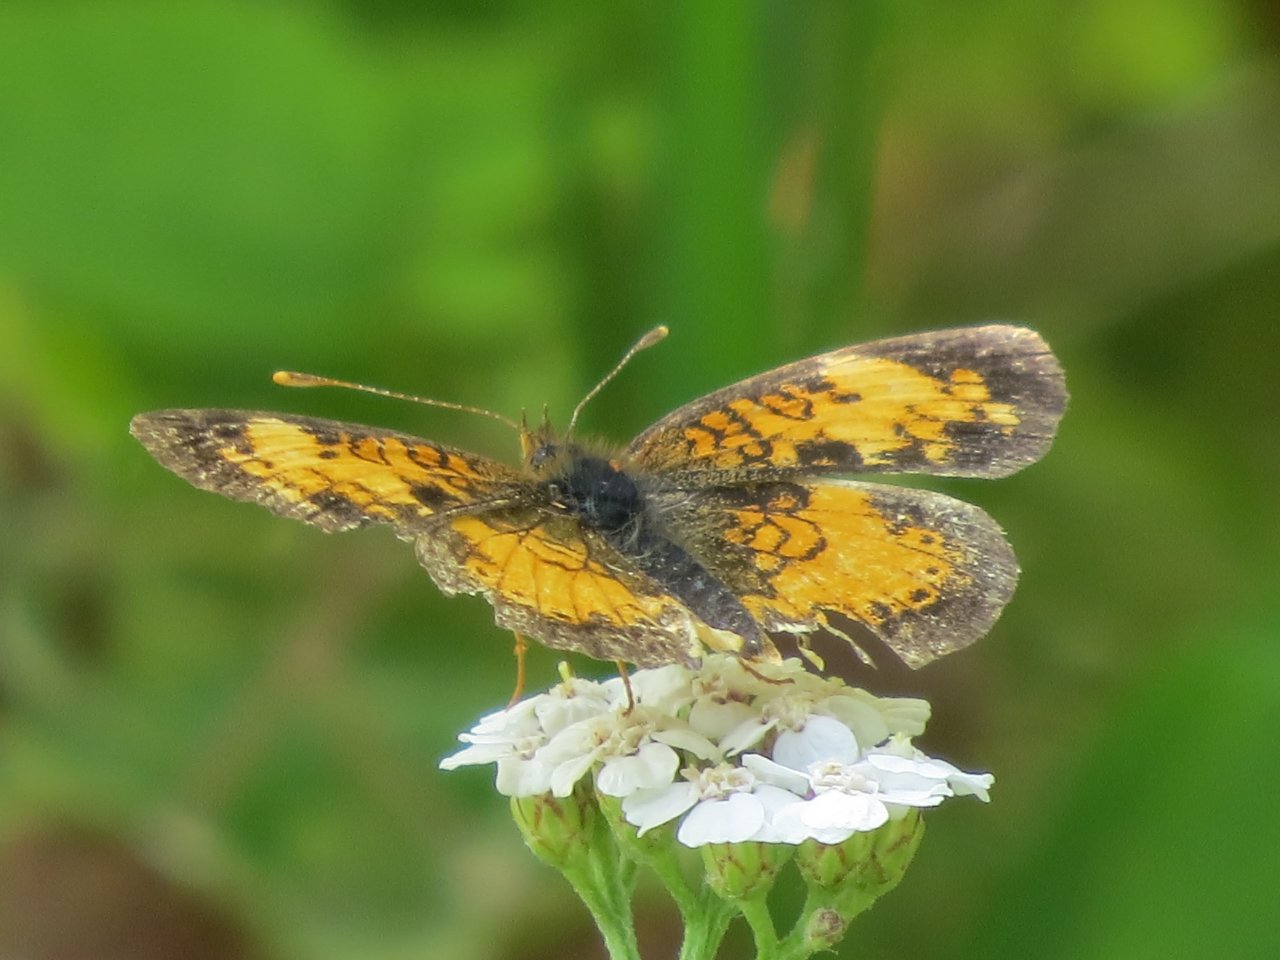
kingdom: Animalia
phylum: Arthropoda
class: Insecta
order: Lepidoptera
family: Nymphalidae
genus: Phyciodes
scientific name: Phyciodes tharos
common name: Northern Crescent
